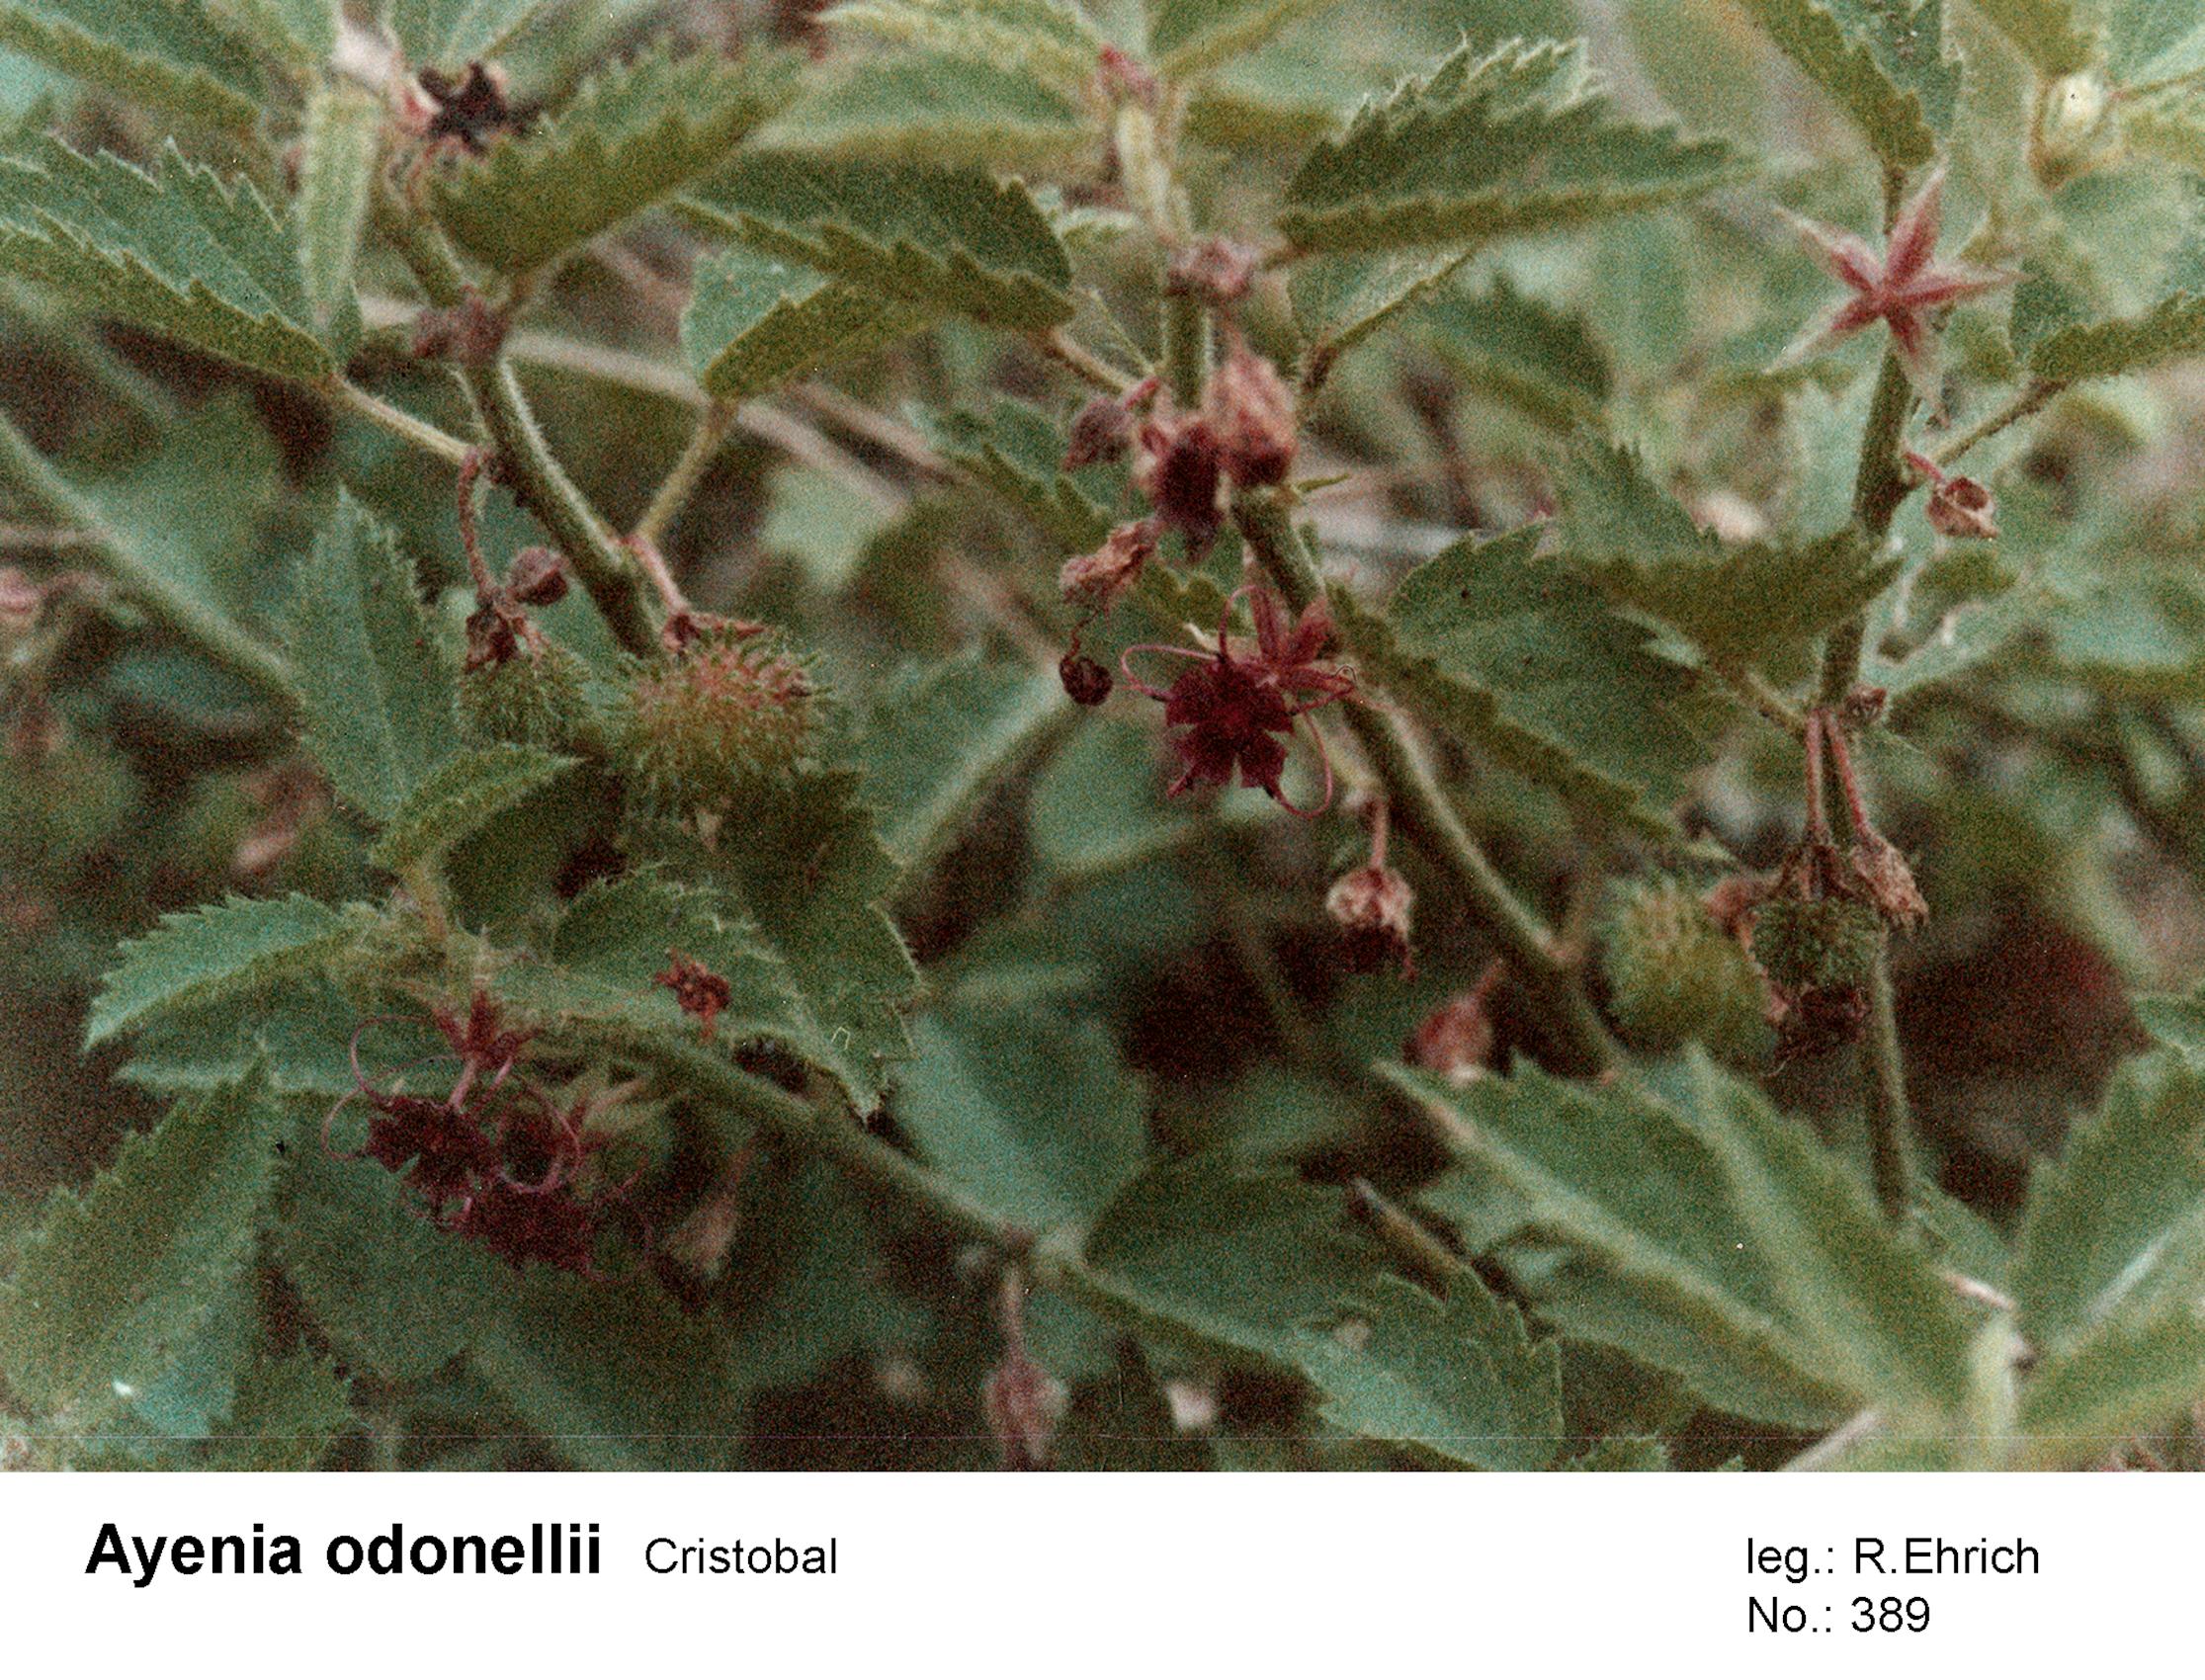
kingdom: Plantae
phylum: Tracheophyta
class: Magnoliopsida
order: Malvales
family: Malvaceae
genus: Ayenia
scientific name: Ayenia odonellii
